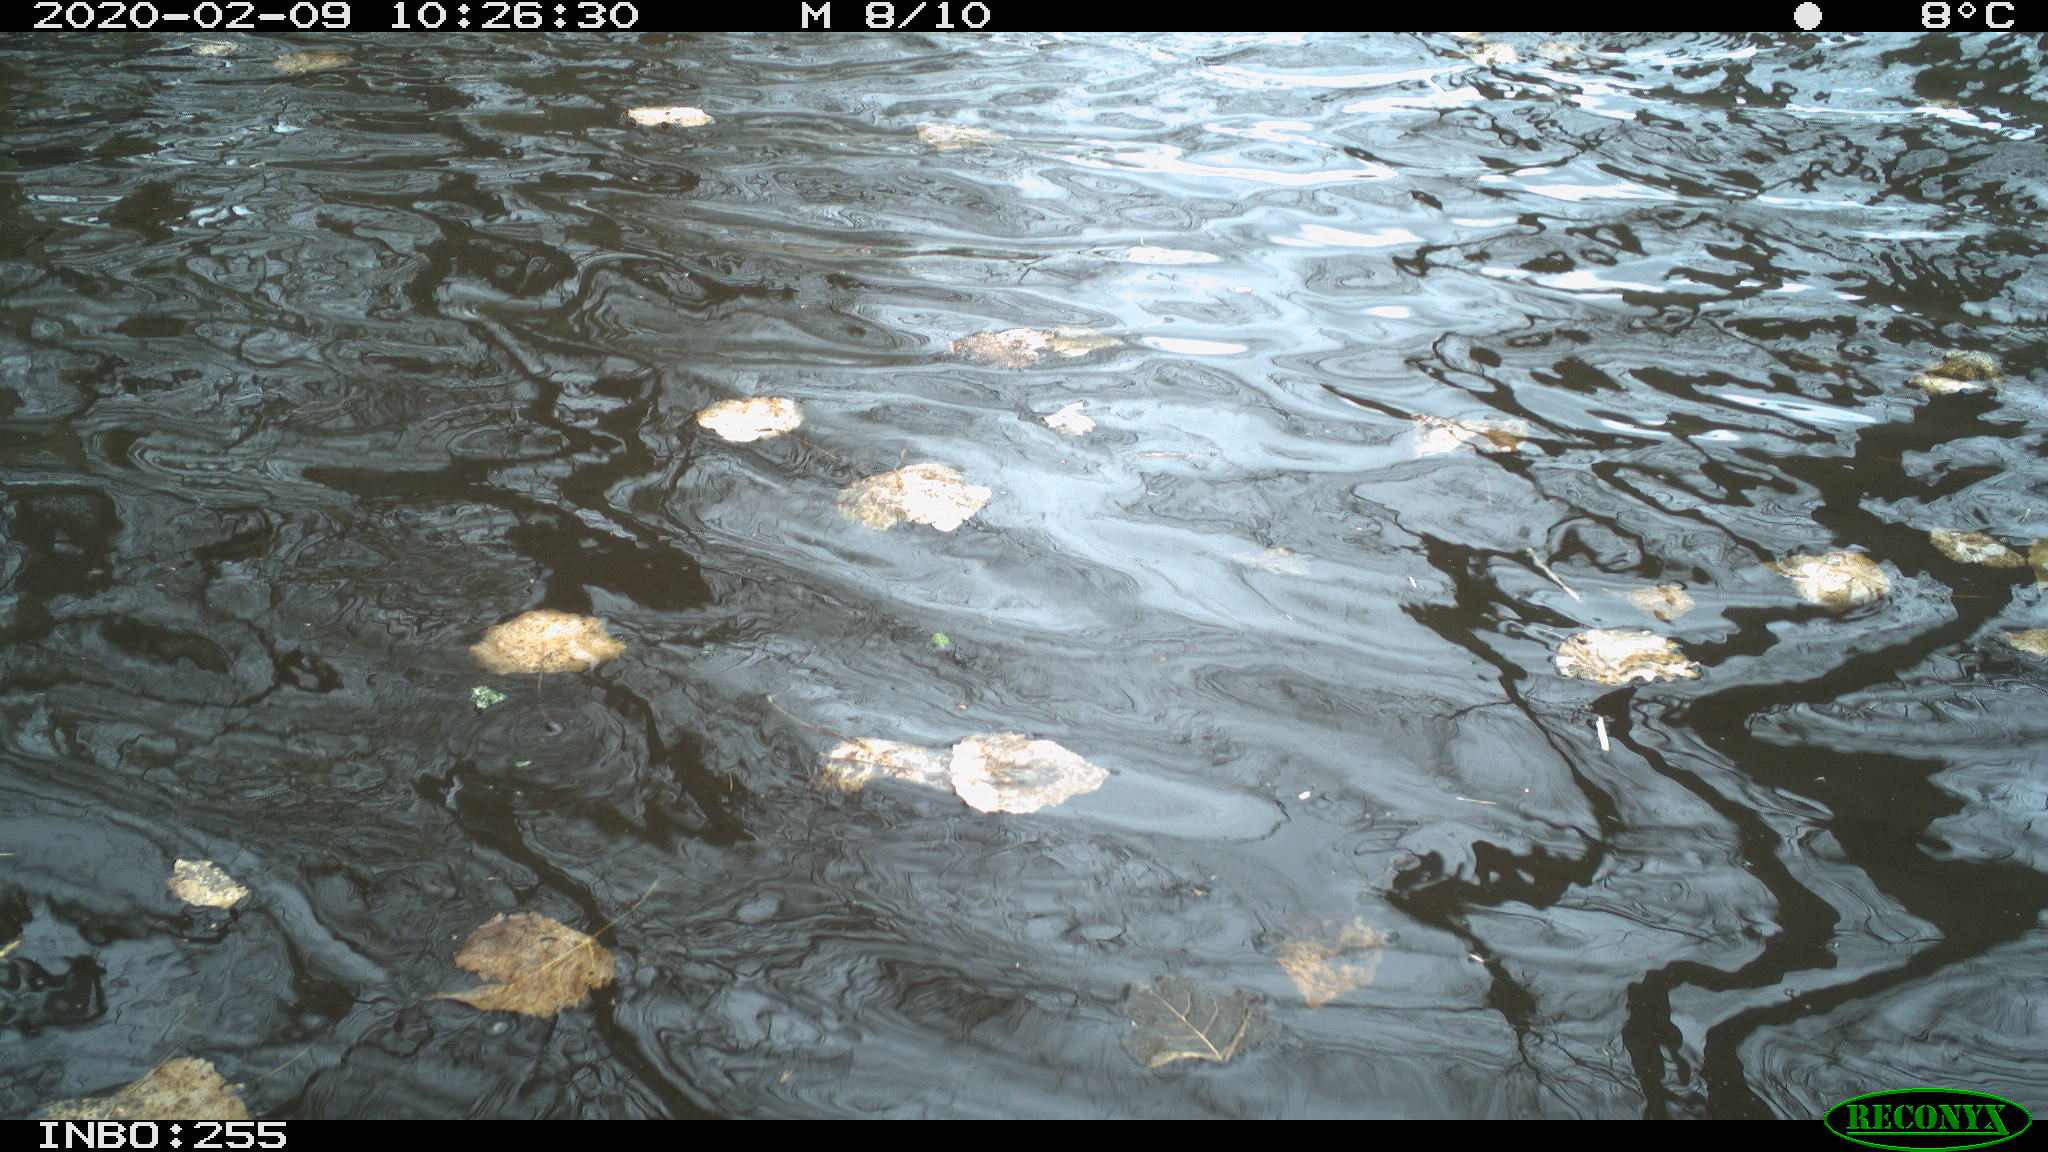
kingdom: Animalia
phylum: Chordata
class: Aves
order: Gruiformes
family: Rallidae
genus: Fulica
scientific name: Fulica atra
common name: Eurasian coot
